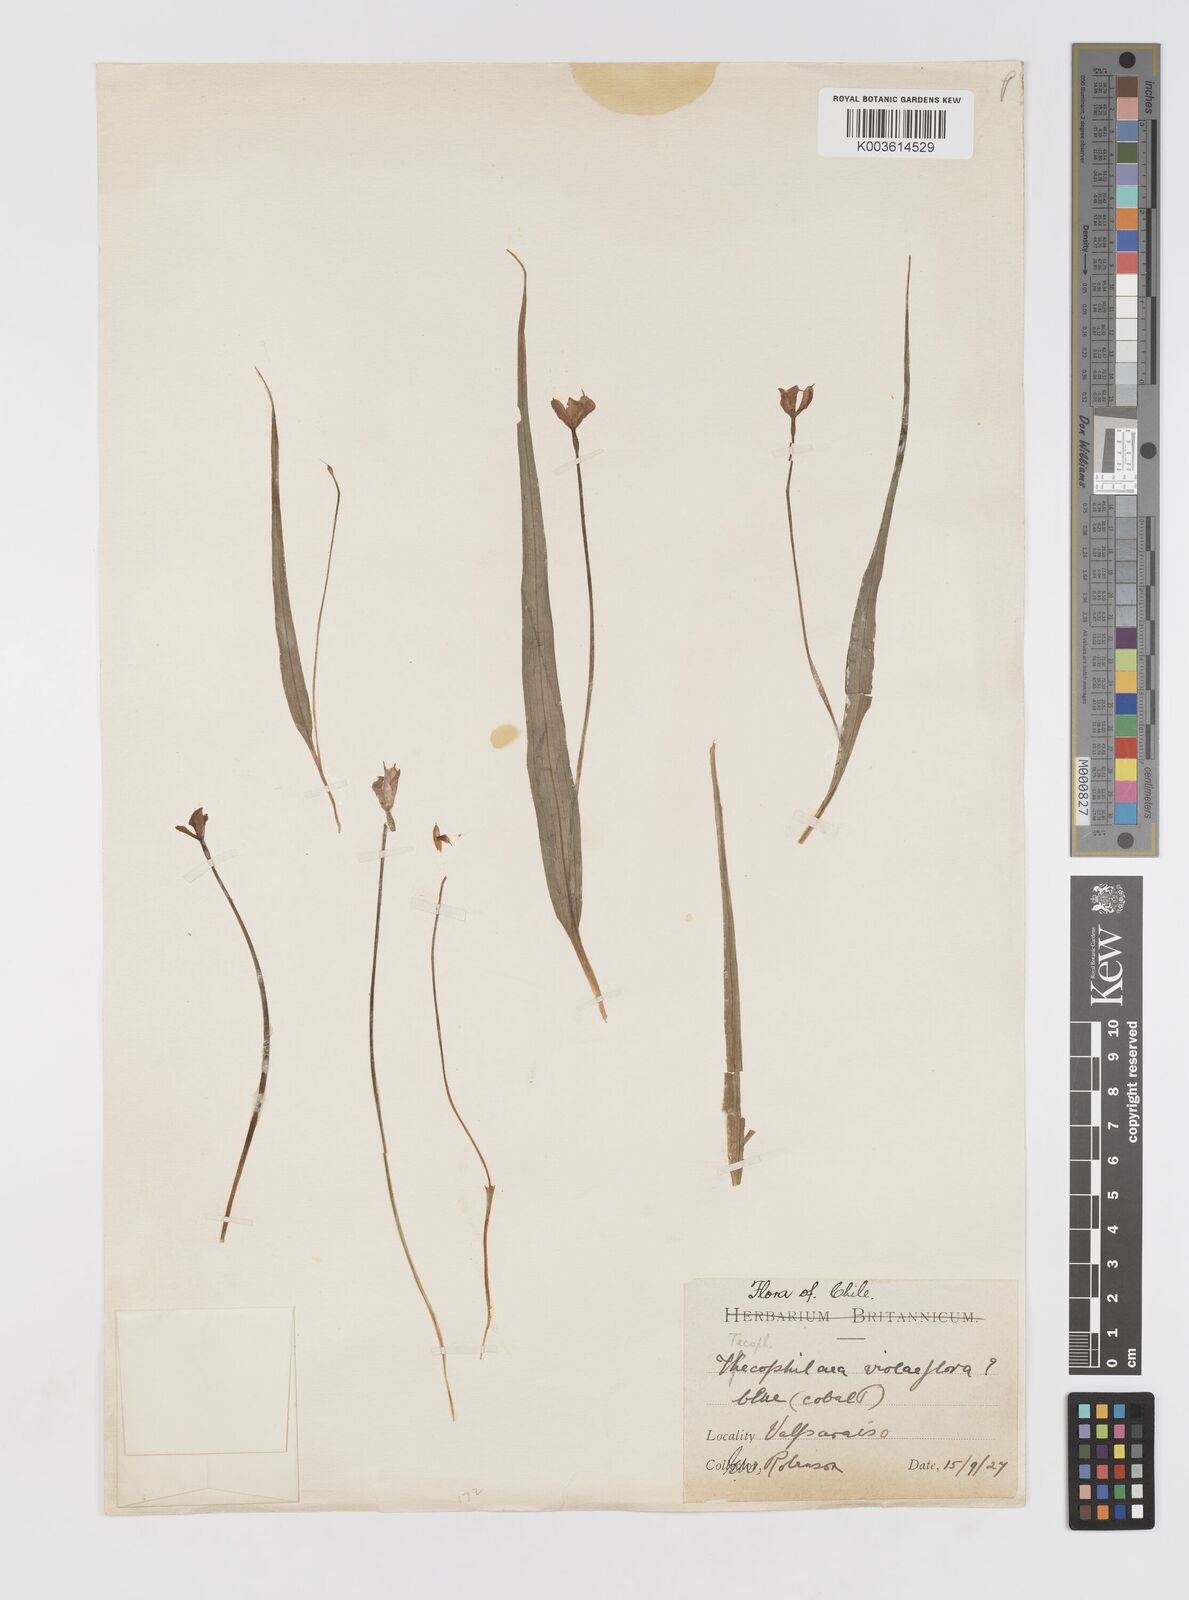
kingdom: Plantae
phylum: Tracheophyta
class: Liliopsida
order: Asparagales
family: Tecophilaeaceae
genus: Tecophilaea
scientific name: Tecophilaea violiflora
